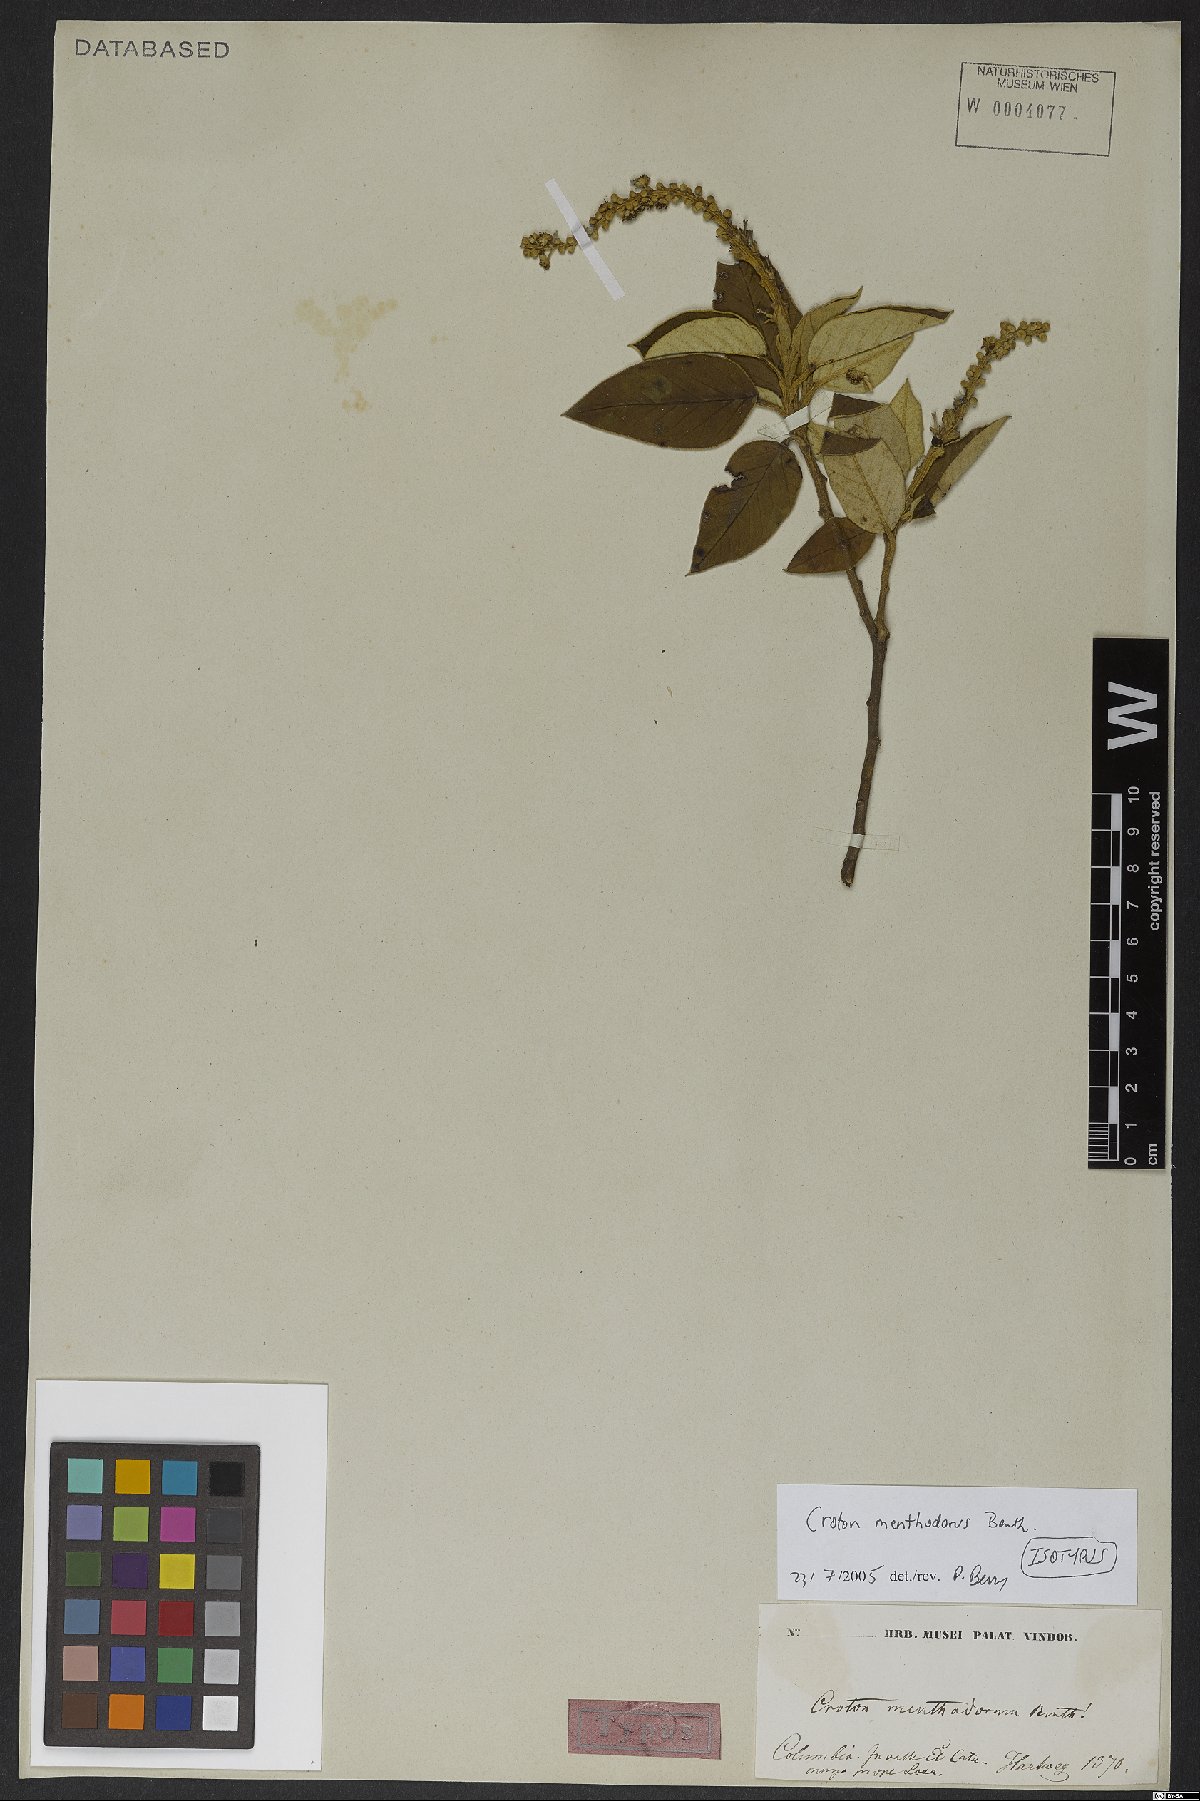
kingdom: Plantae
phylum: Tracheophyta
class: Magnoliopsida
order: Malpighiales
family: Euphorbiaceae
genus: Croton
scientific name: Croton menthodorus
